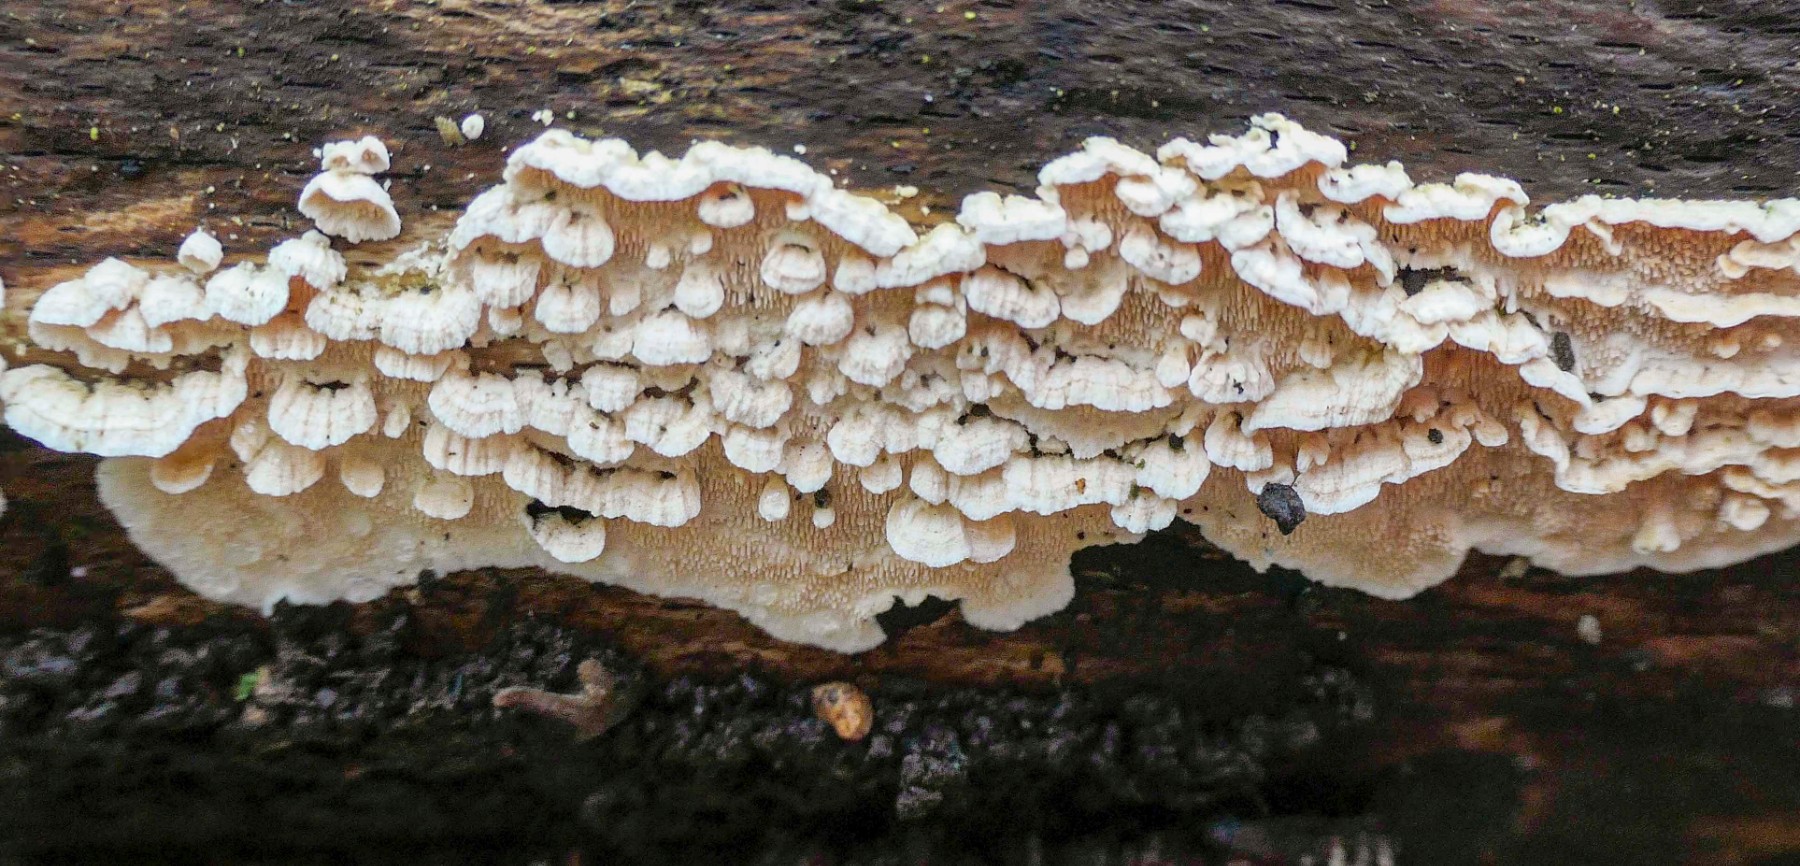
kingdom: Fungi
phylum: Basidiomycota
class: Agaricomycetes
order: Polyporales
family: Steccherinaceae
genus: Steccherinum
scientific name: Steccherinum ochraceum
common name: almindelig skønpig
